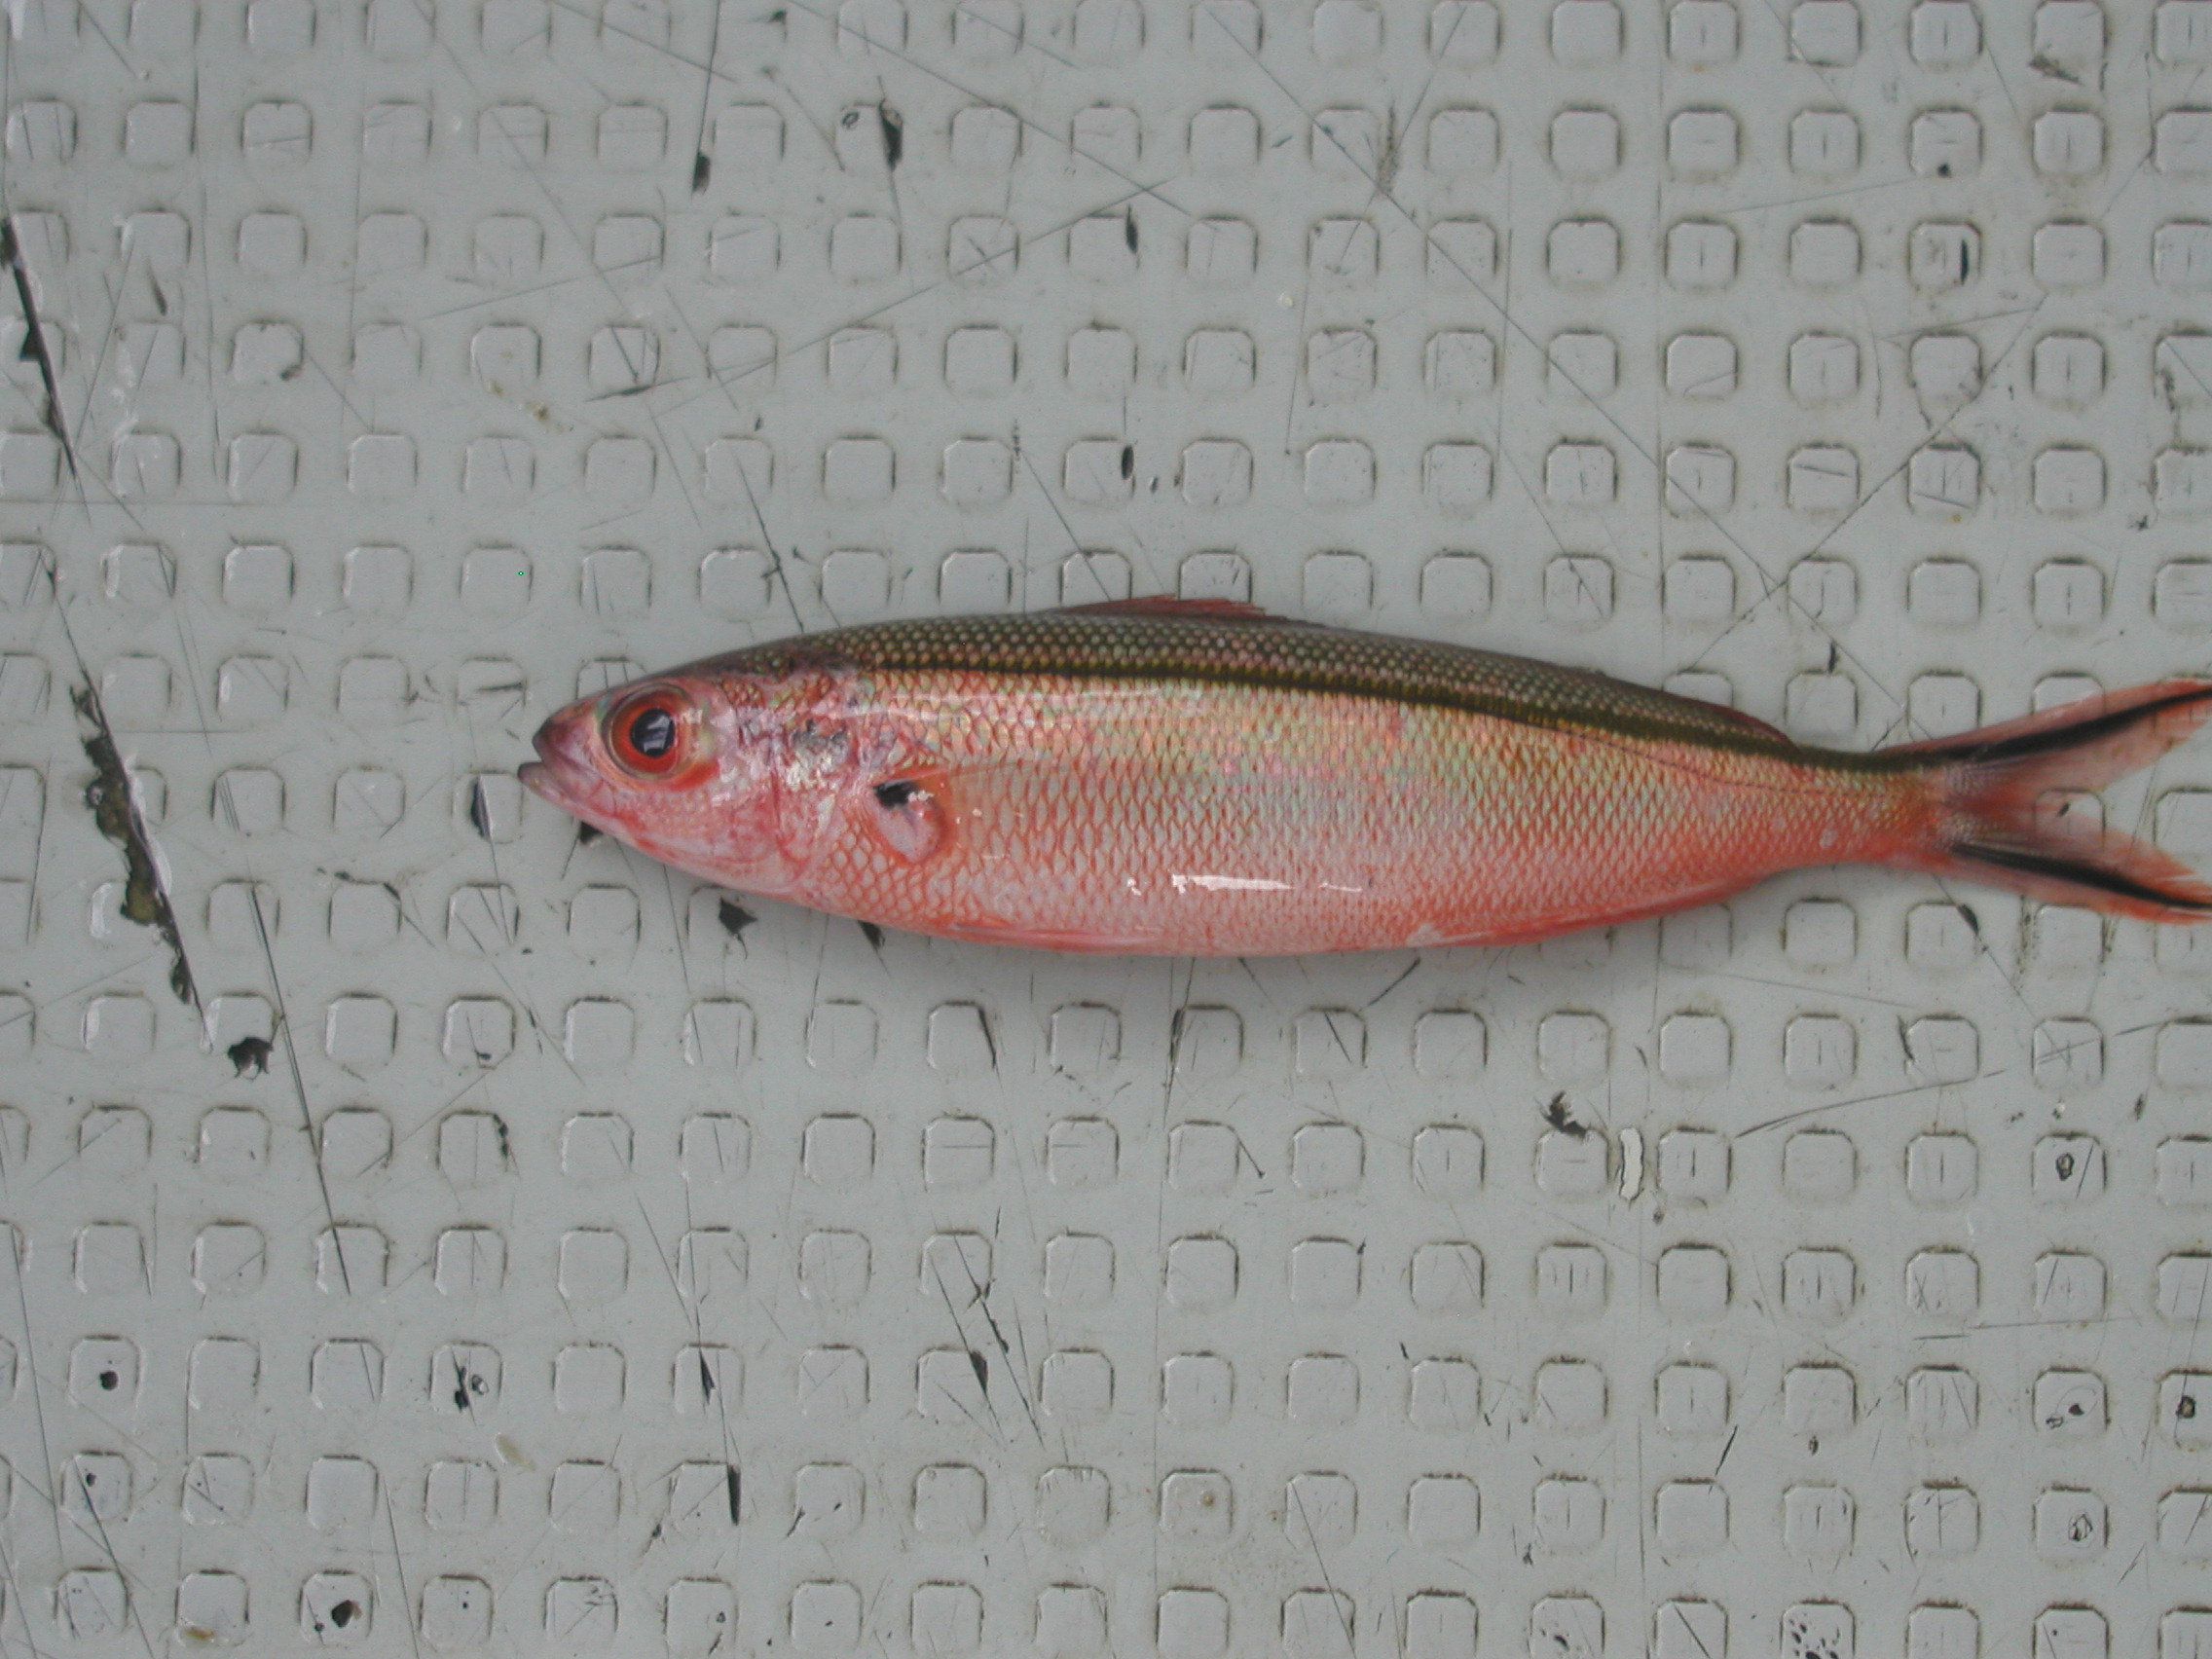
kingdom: Animalia
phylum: Chordata
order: Perciformes
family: Caesionidae
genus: Pterocaesio
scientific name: Pterocaesio tile
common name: Dark-banded fusilier
